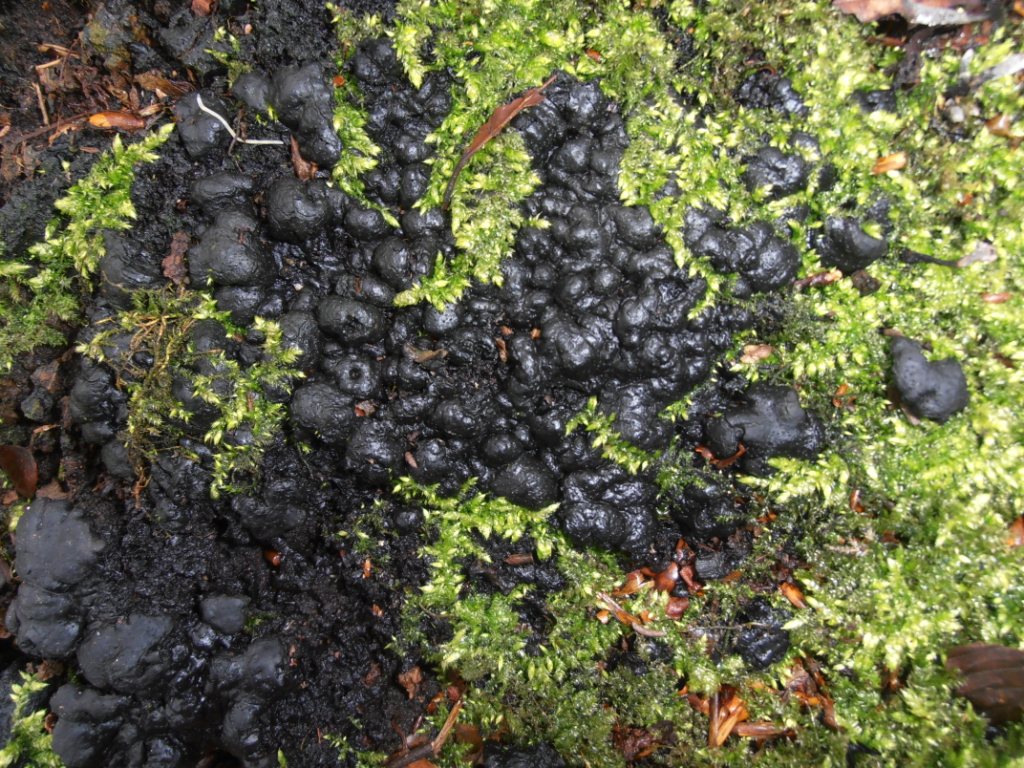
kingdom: Fungi
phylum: Ascomycota
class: Sordariomycetes
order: Xylariales
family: Xylariaceae
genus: Kretzschmaria
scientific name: Kretzschmaria deusta
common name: stor kulsvamp
